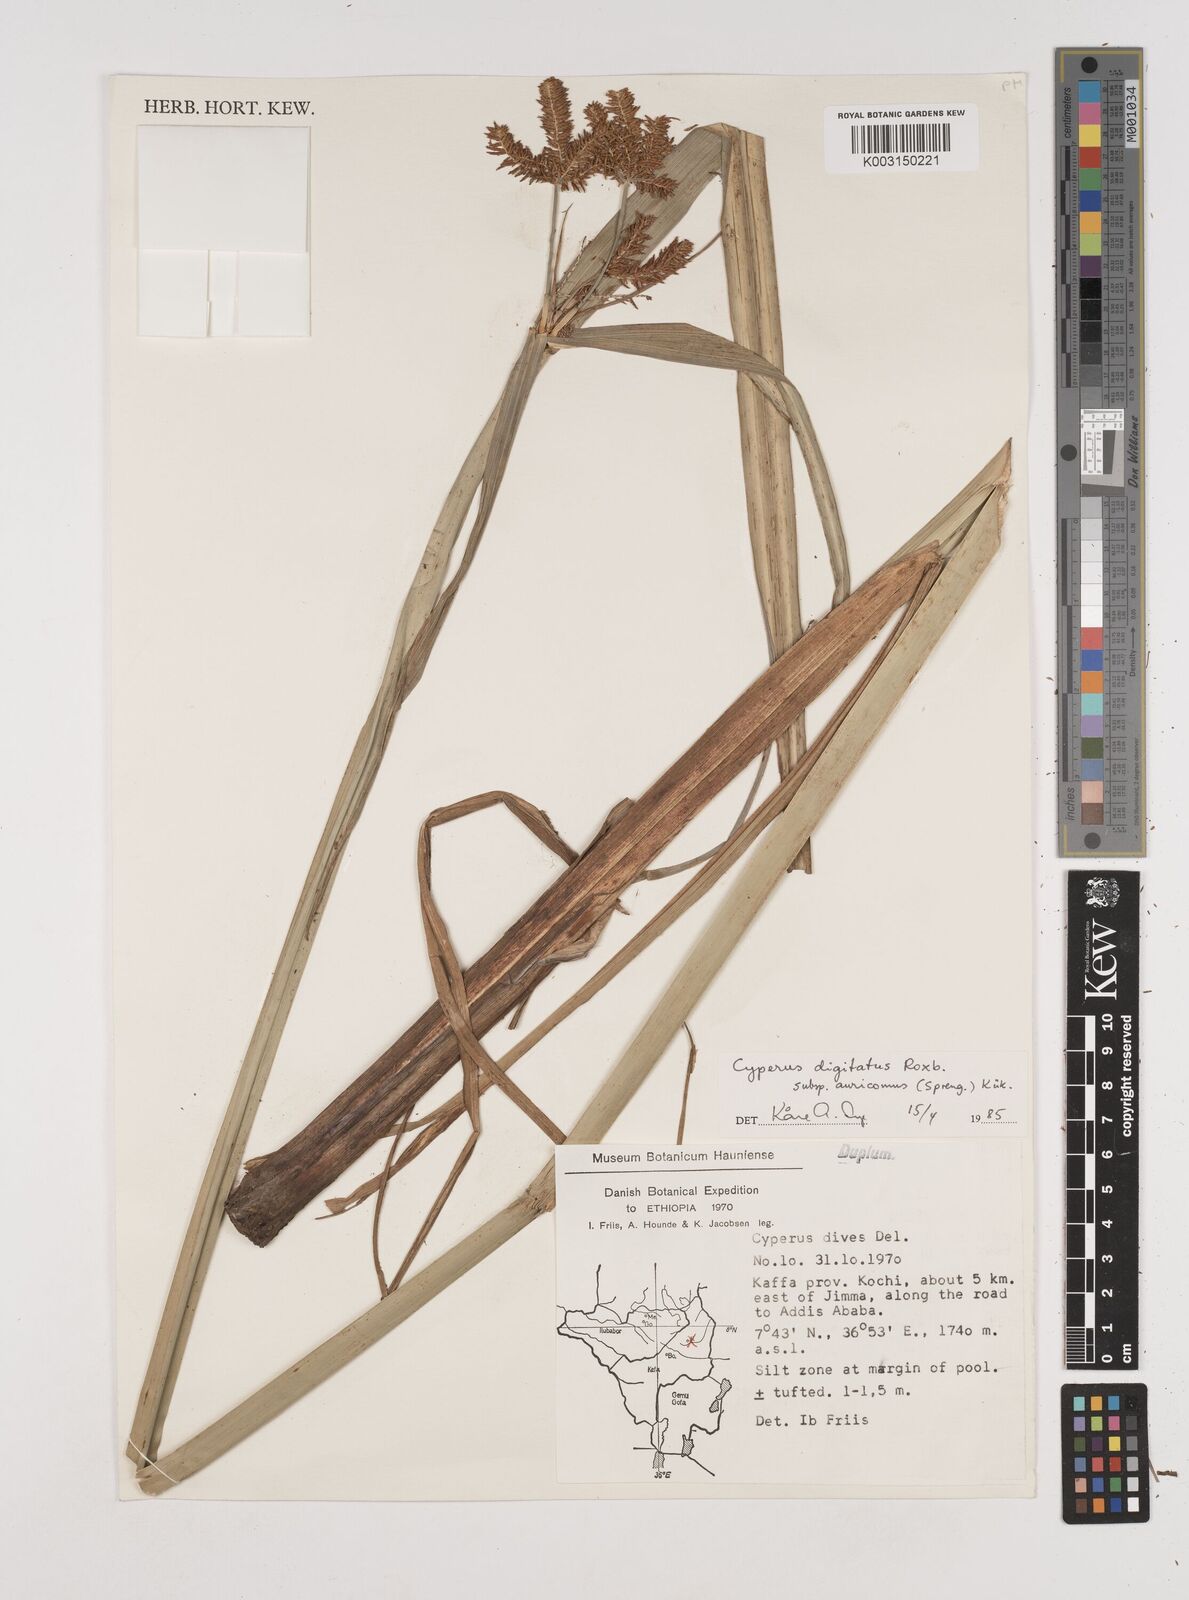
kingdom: Plantae
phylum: Tracheophyta
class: Liliopsida
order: Poales
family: Cyperaceae
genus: Cyperus
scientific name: Cyperus penzoanus
